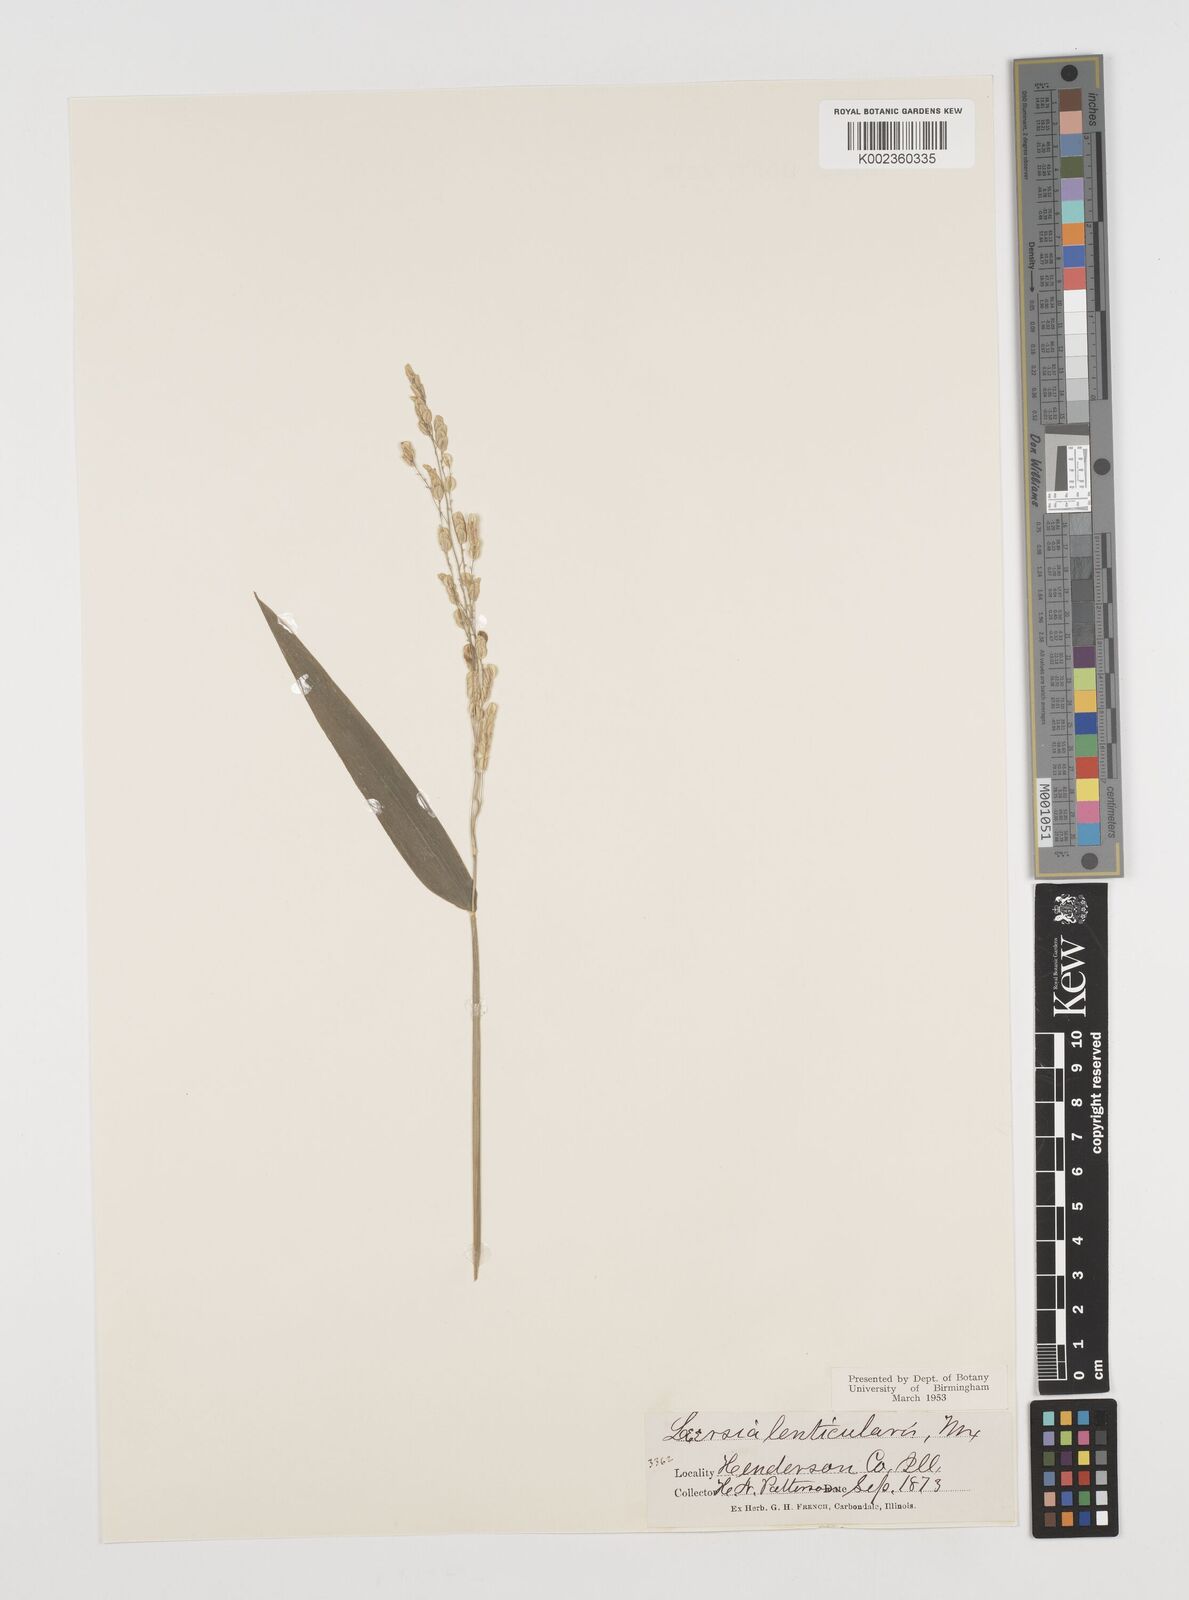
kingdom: Plantae
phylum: Tracheophyta
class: Liliopsida
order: Poales
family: Poaceae
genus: Leersia
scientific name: Leersia lenticularis
